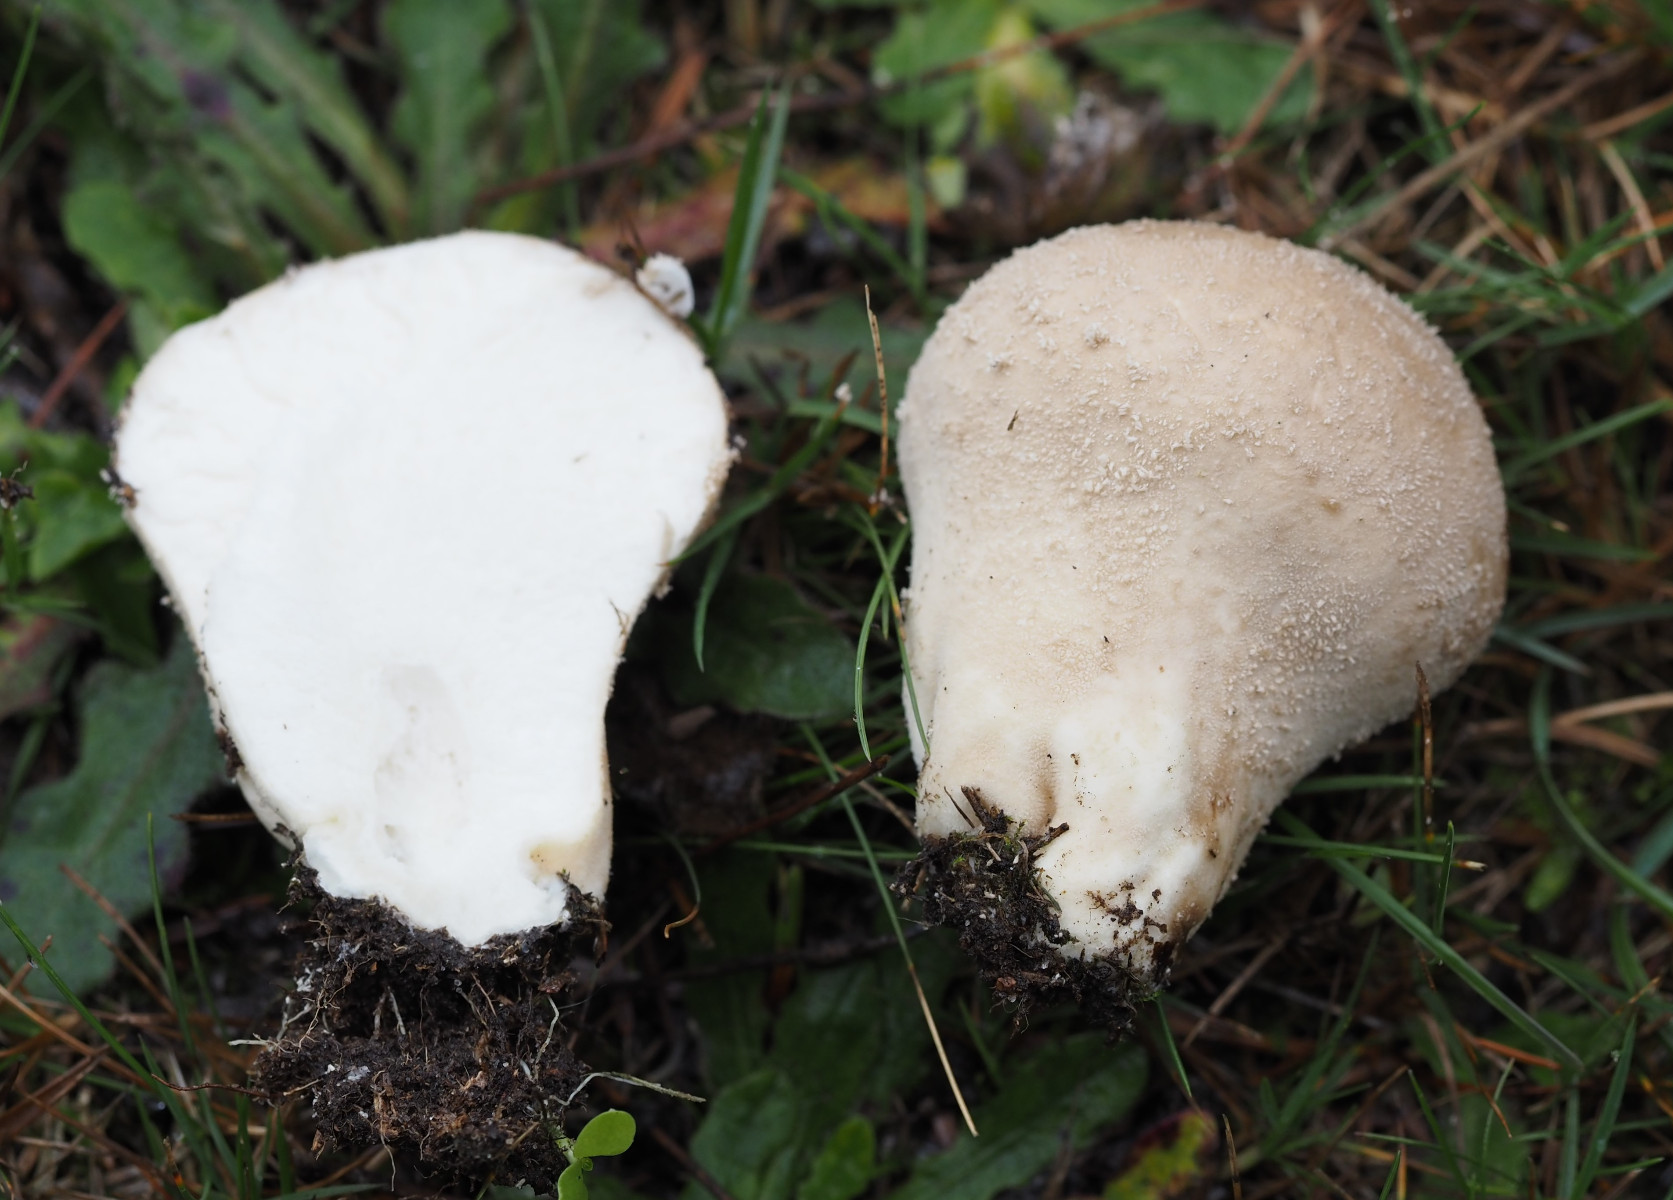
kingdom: Fungi
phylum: Basidiomycota
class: Agaricomycetes
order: Agaricales
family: Lycoperdaceae
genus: Lycoperdon
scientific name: Lycoperdon excipuliforme
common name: højstokket støvbold
